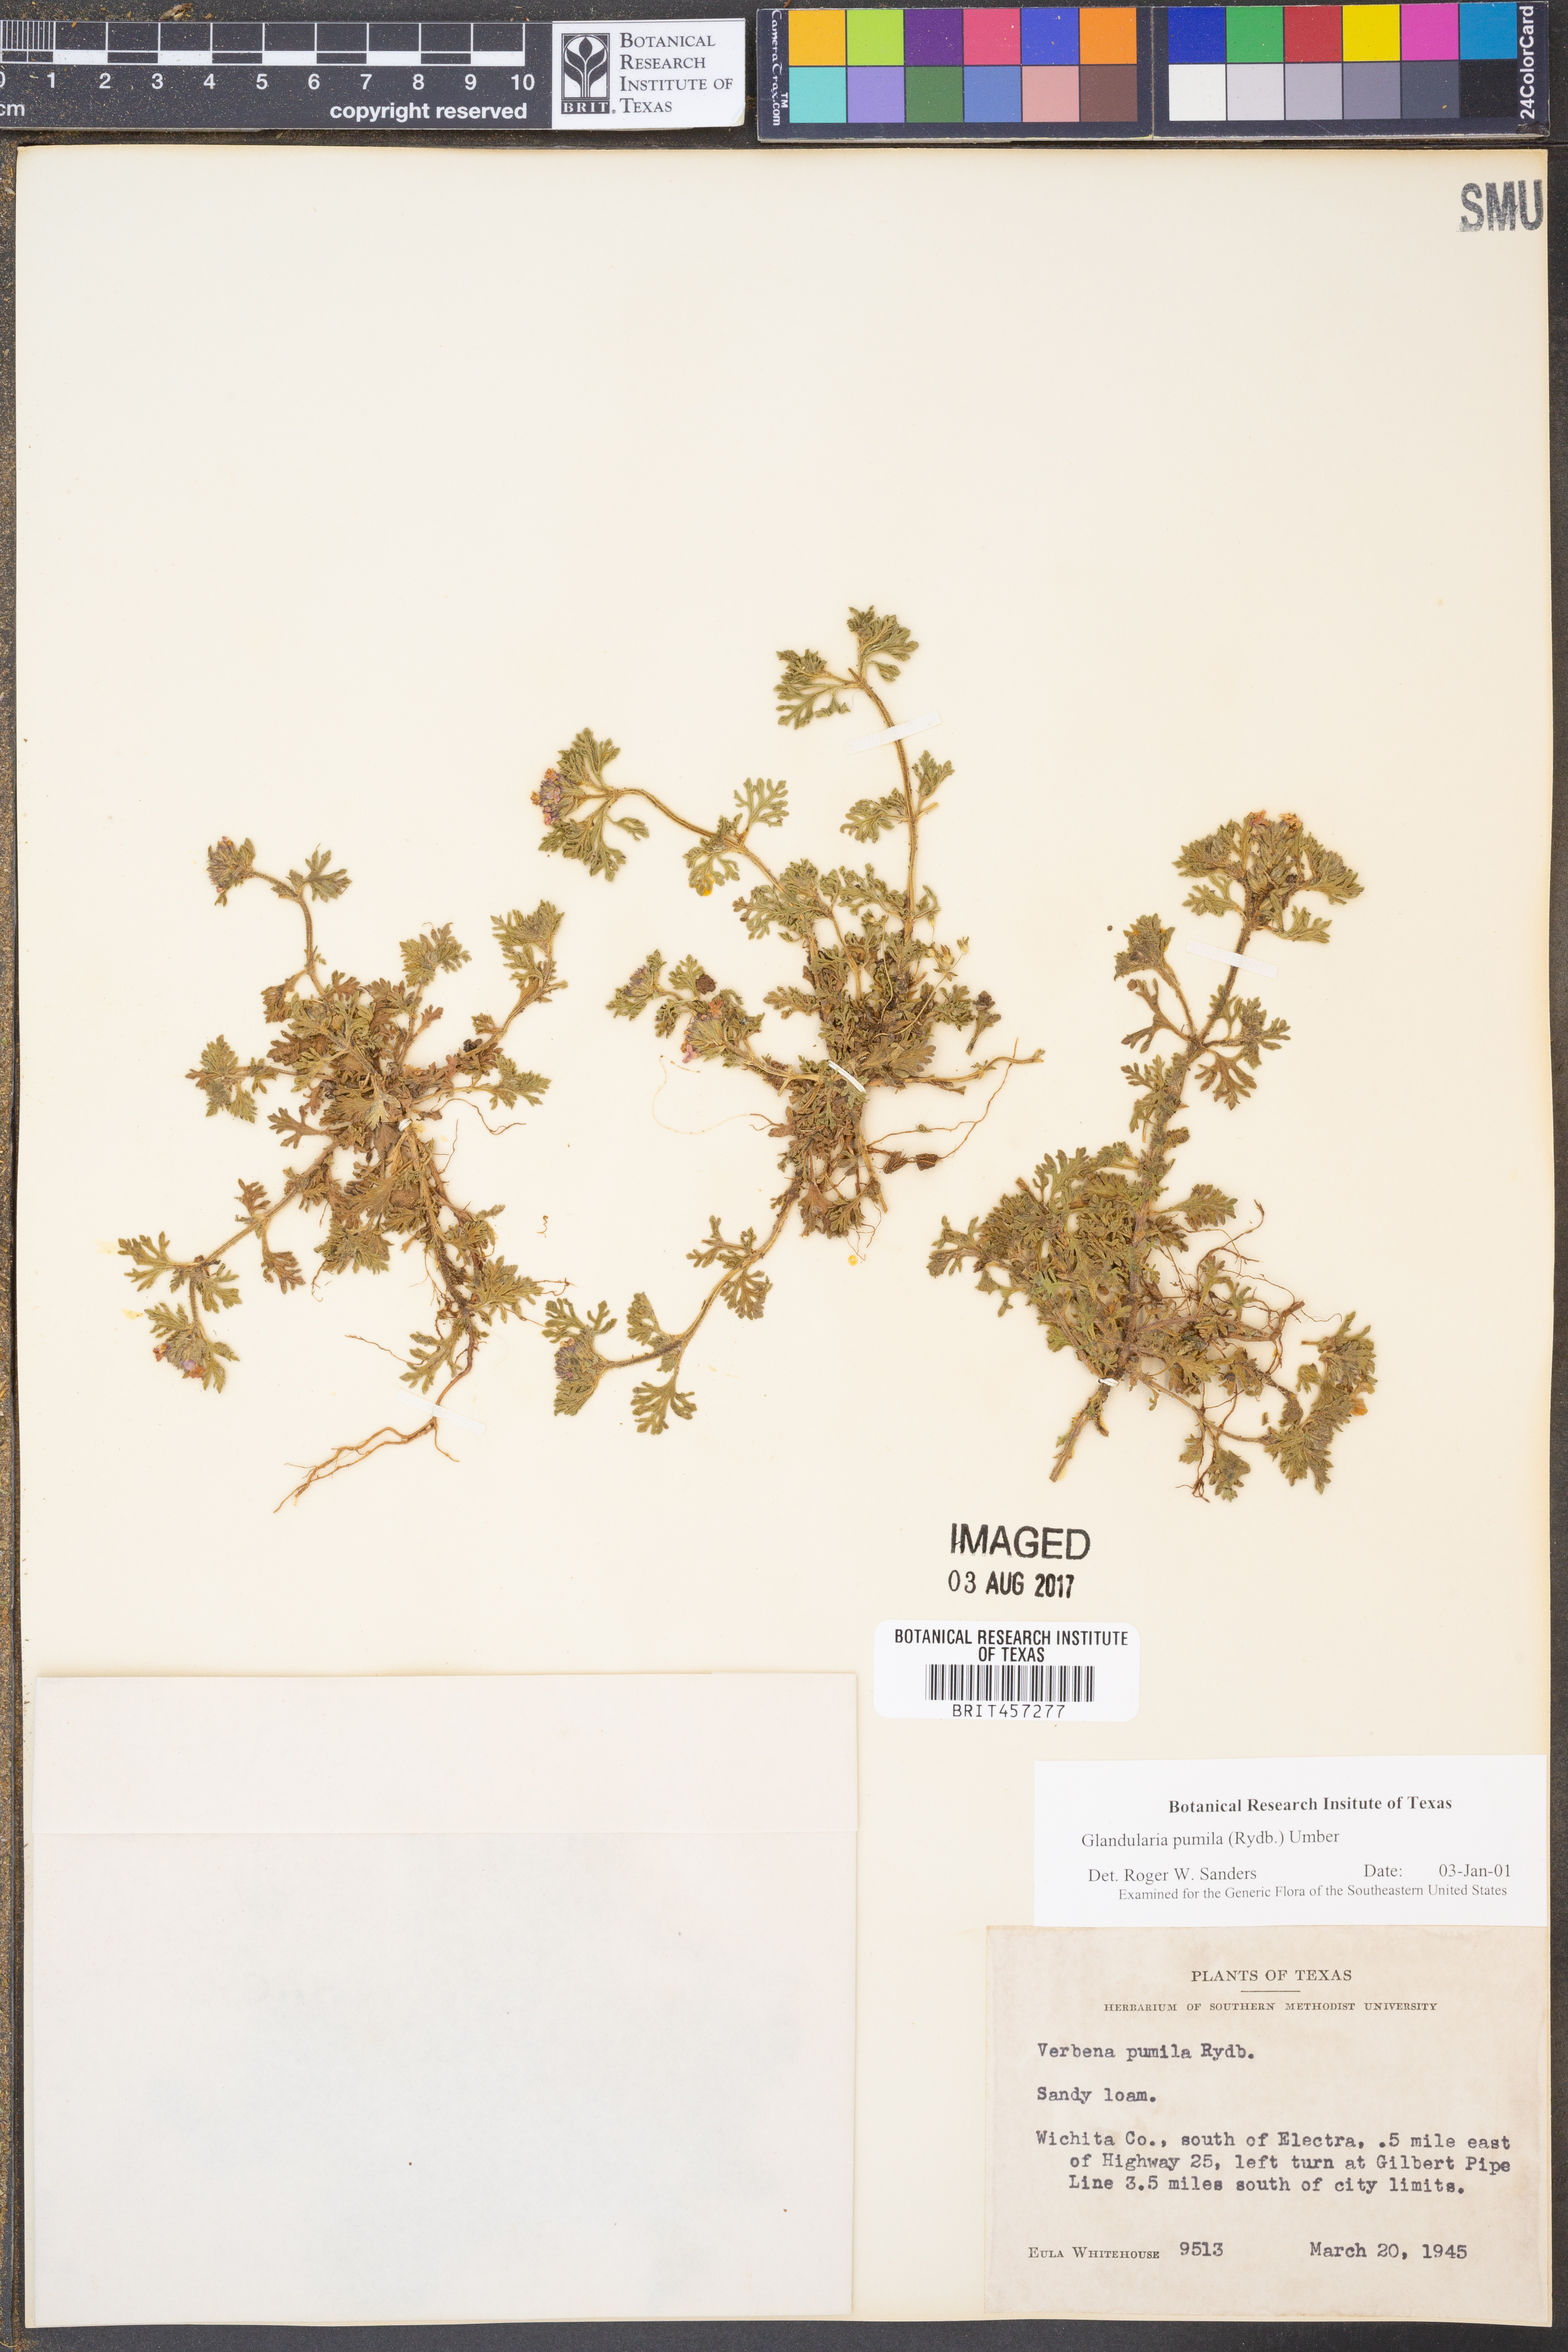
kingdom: Plantae
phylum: Tracheophyta
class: Magnoliopsida
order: Lamiales
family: Verbenaceae
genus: Verbena
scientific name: Verbena pumila
